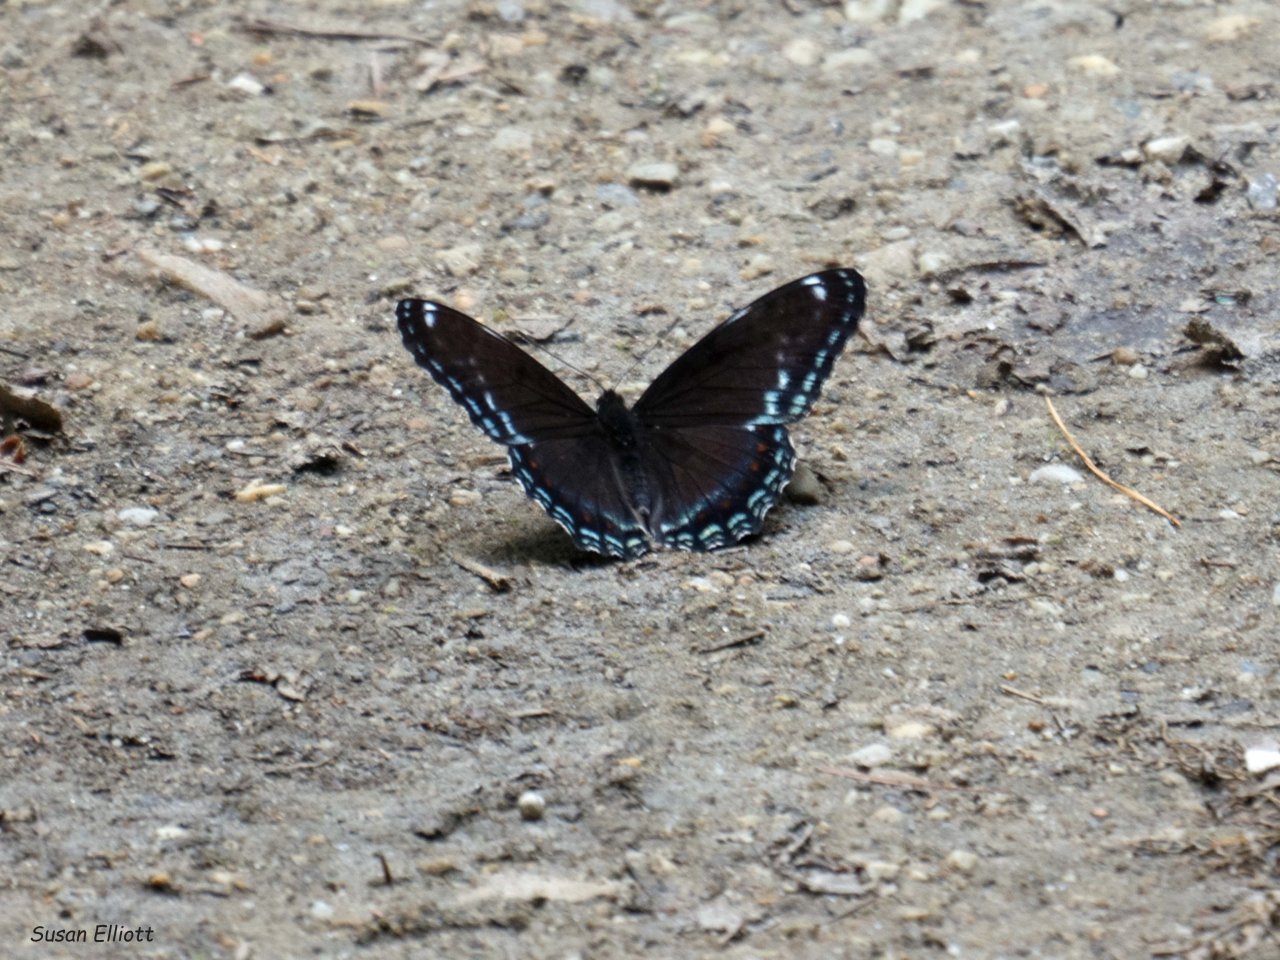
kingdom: Animalia
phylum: Arthropoda
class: Insecta
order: Lepidoptera
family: Nymphalidae
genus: Limenitis
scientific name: Limenitis
